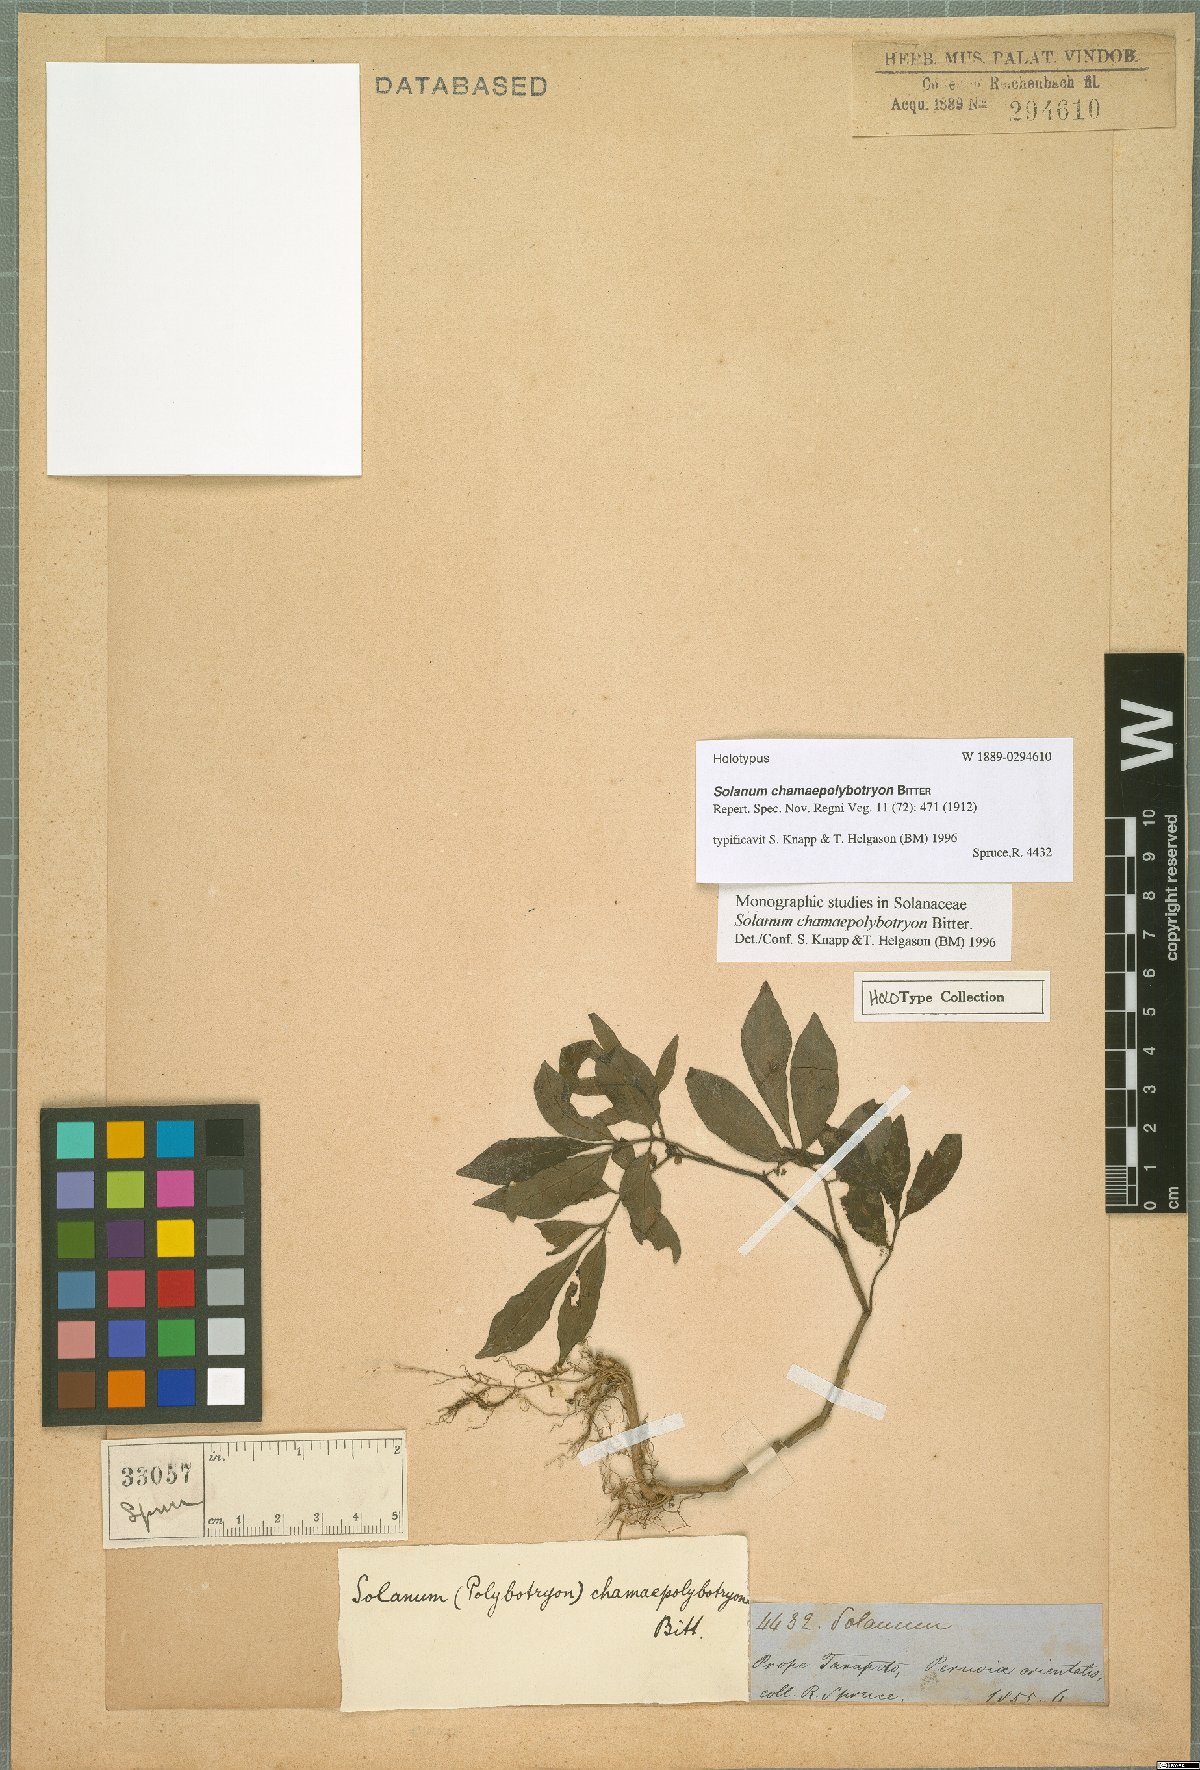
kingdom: Plantae
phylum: Tracheophyta
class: Magnoliopsida
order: Solanales
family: Solanaceae
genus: Solanum
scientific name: Solanum trizygum
